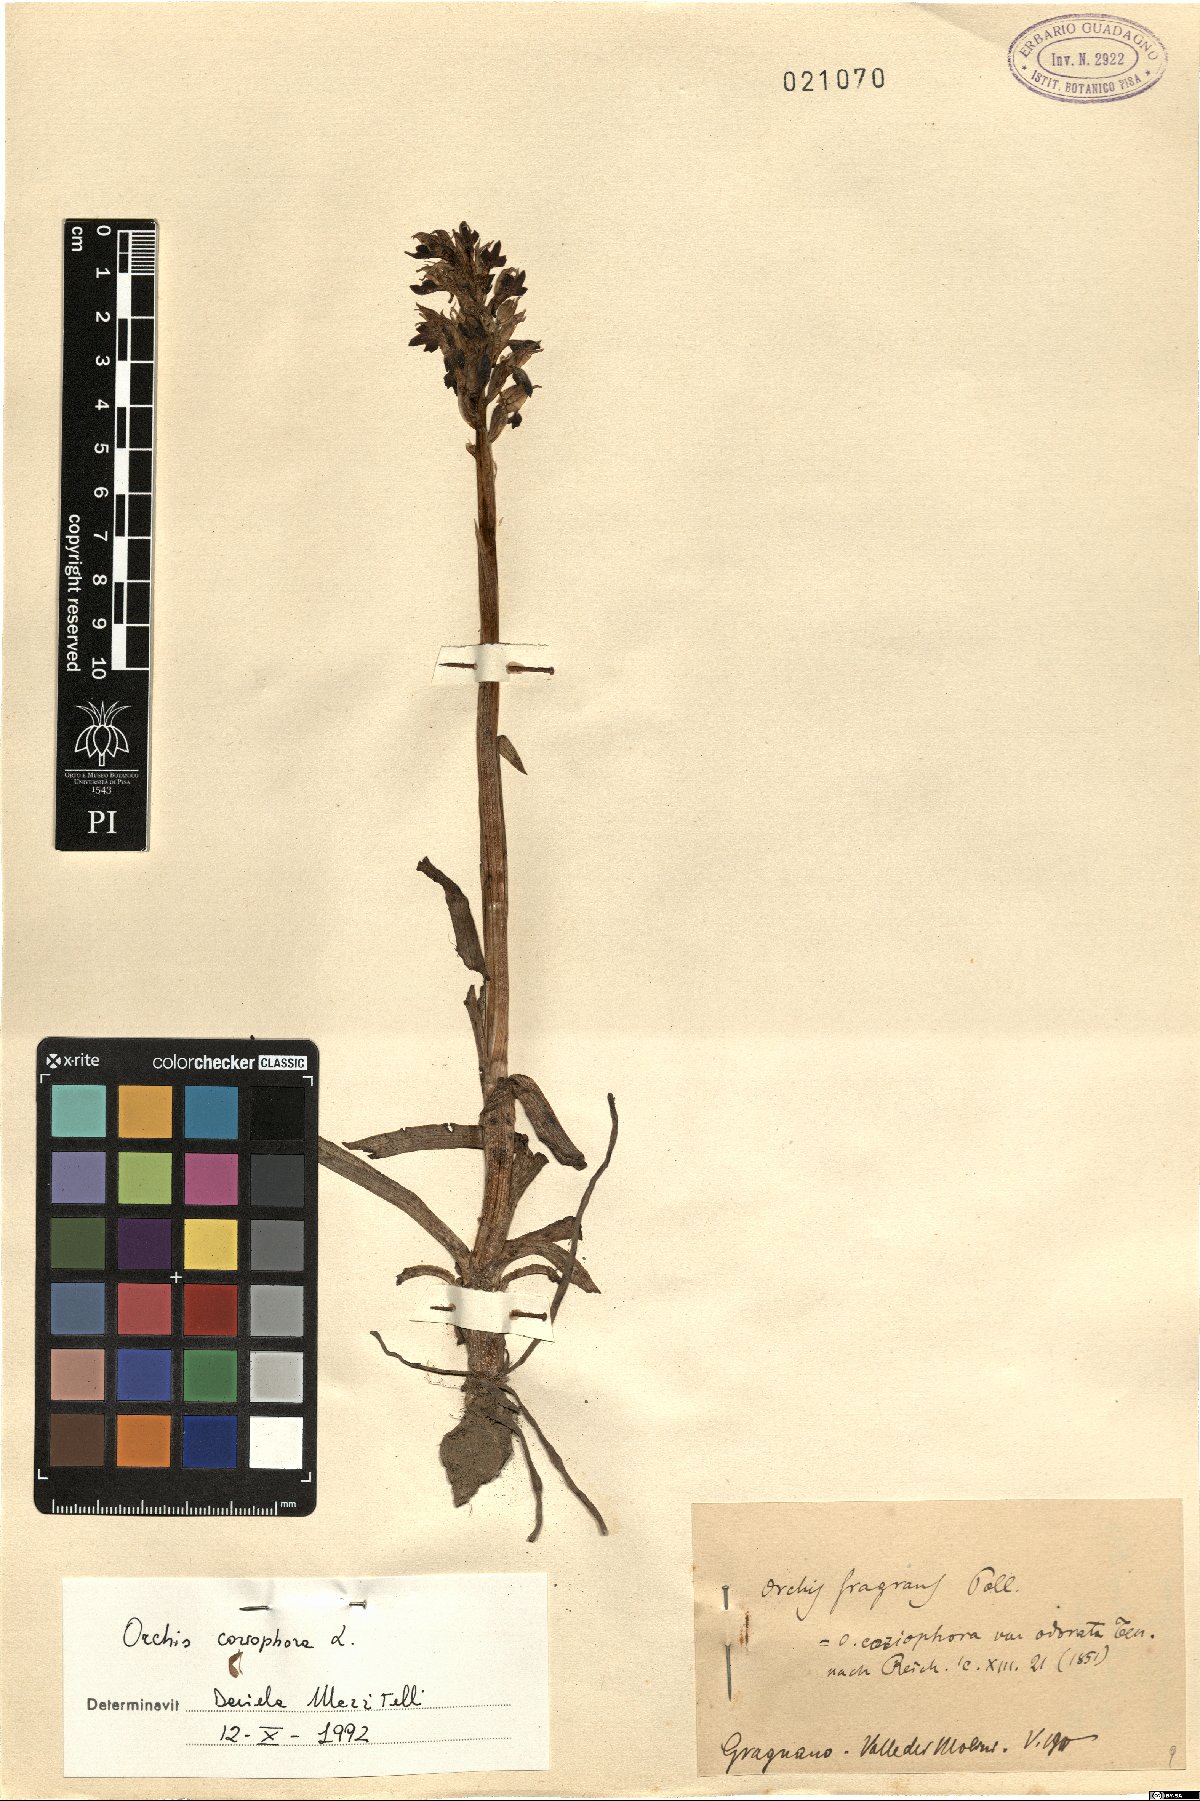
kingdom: Plantae
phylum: Tracheophyta
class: Liliopsida
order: Asparagales
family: Orchidaceae
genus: Anacamptis
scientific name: Anacamptis coriophora
